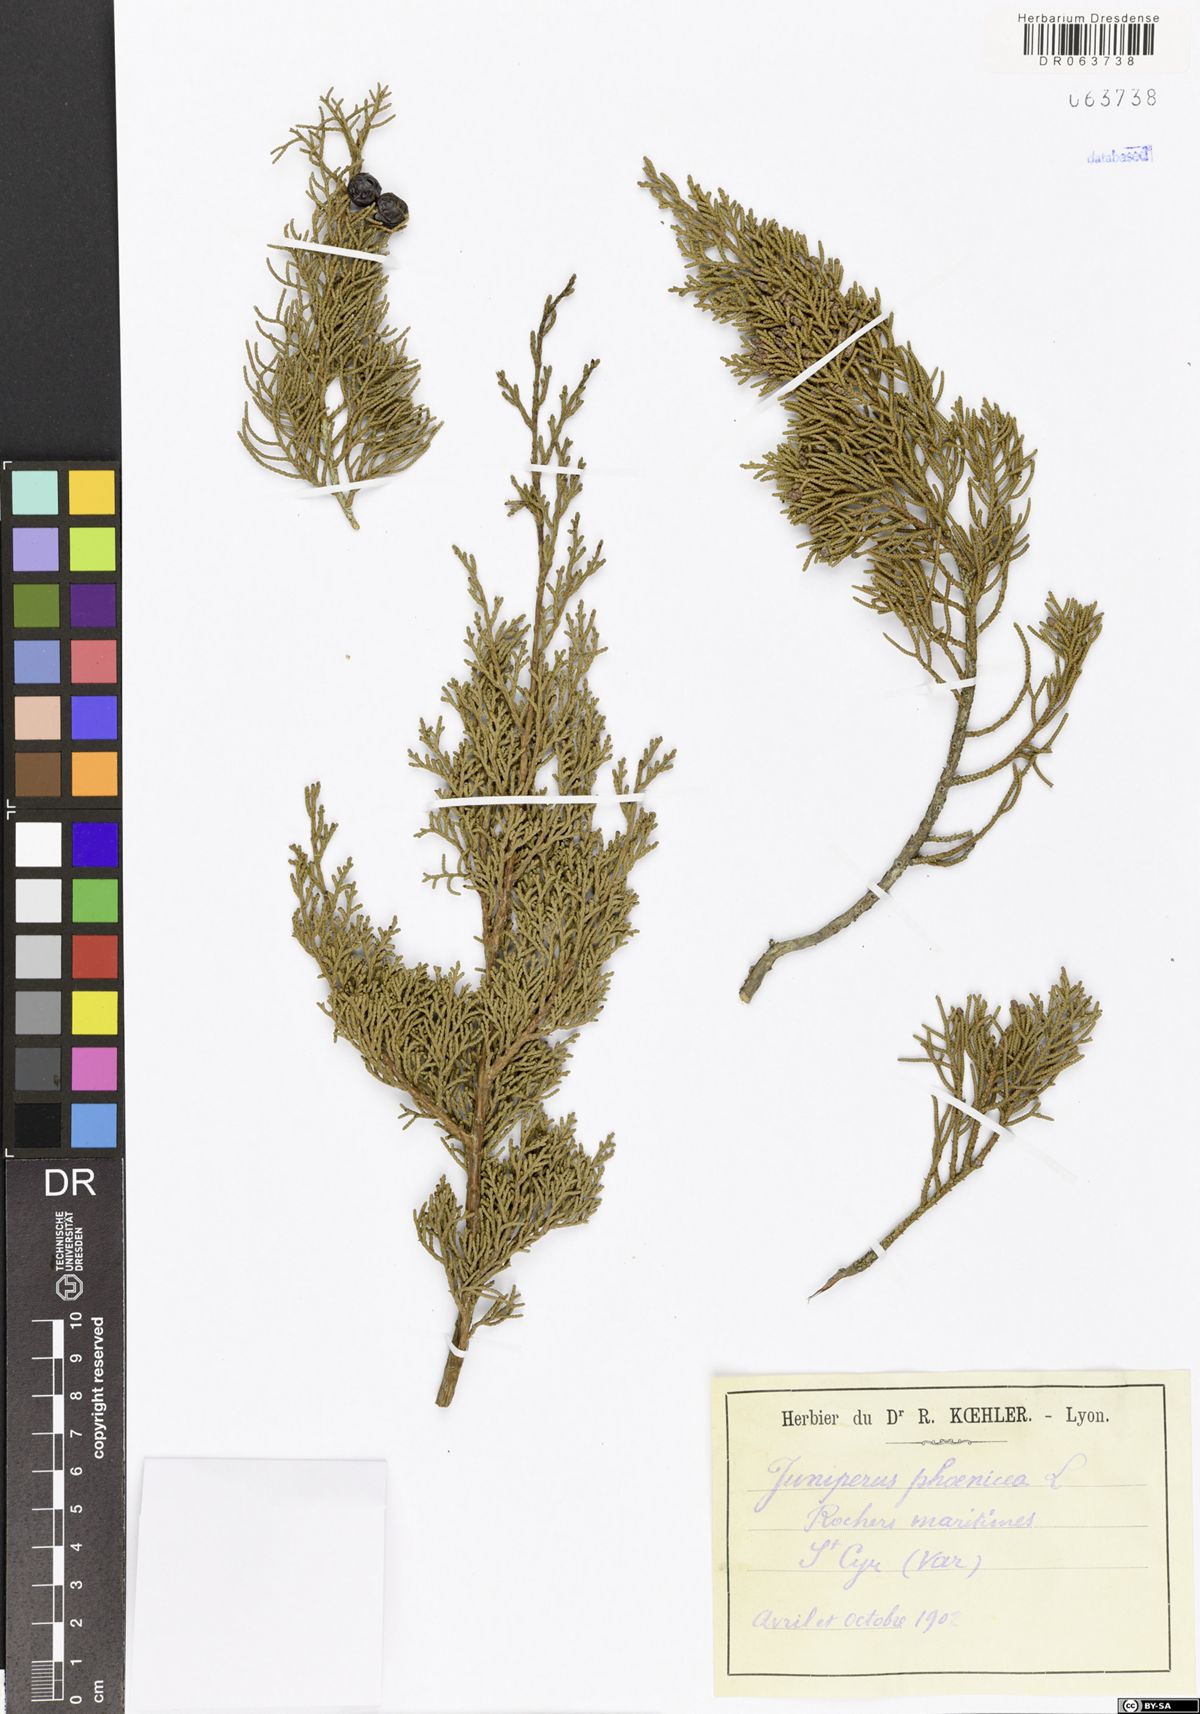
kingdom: Plantae
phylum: Tracheophyta
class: Pinopsida
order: Pinales
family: Cupressaceae
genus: Juniperus
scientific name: Juniperus phoenicea
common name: Phoenician juniper
